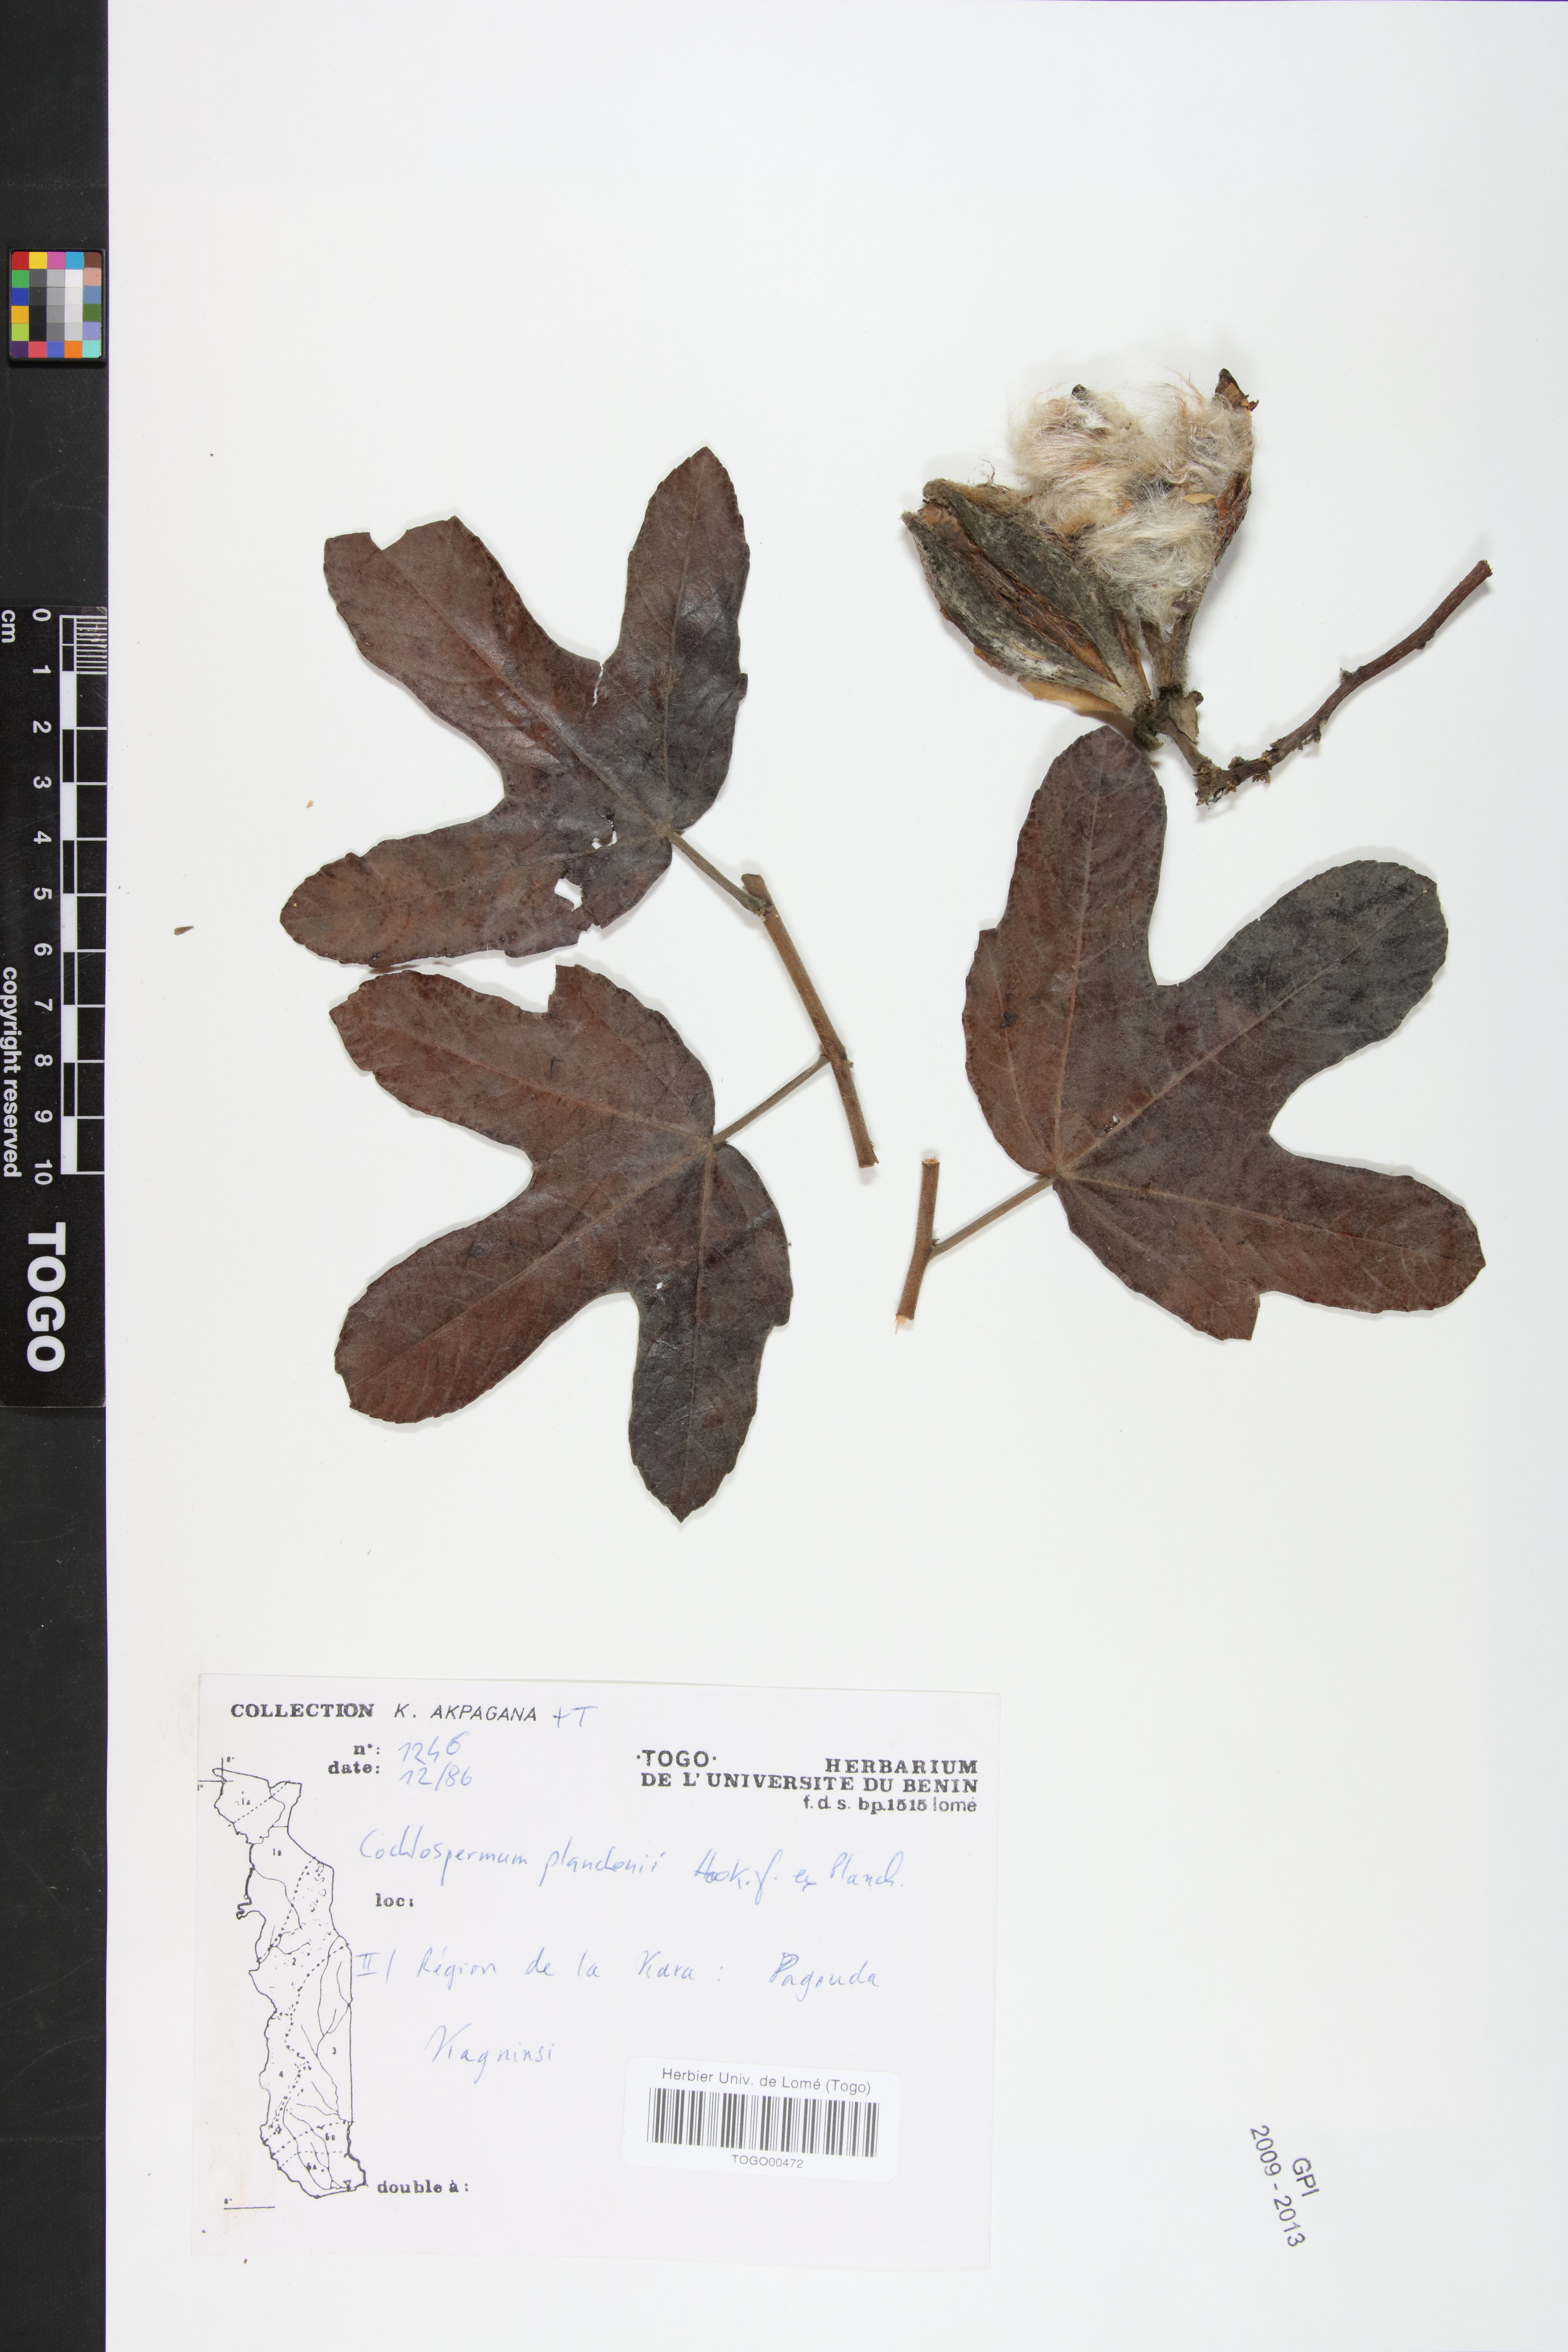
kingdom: Plantae
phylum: Tracheophyta
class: Magnoliopsida
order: Malvales
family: Cochlospermaceae
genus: Cochlospermum
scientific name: Cochlospermum planchonii
